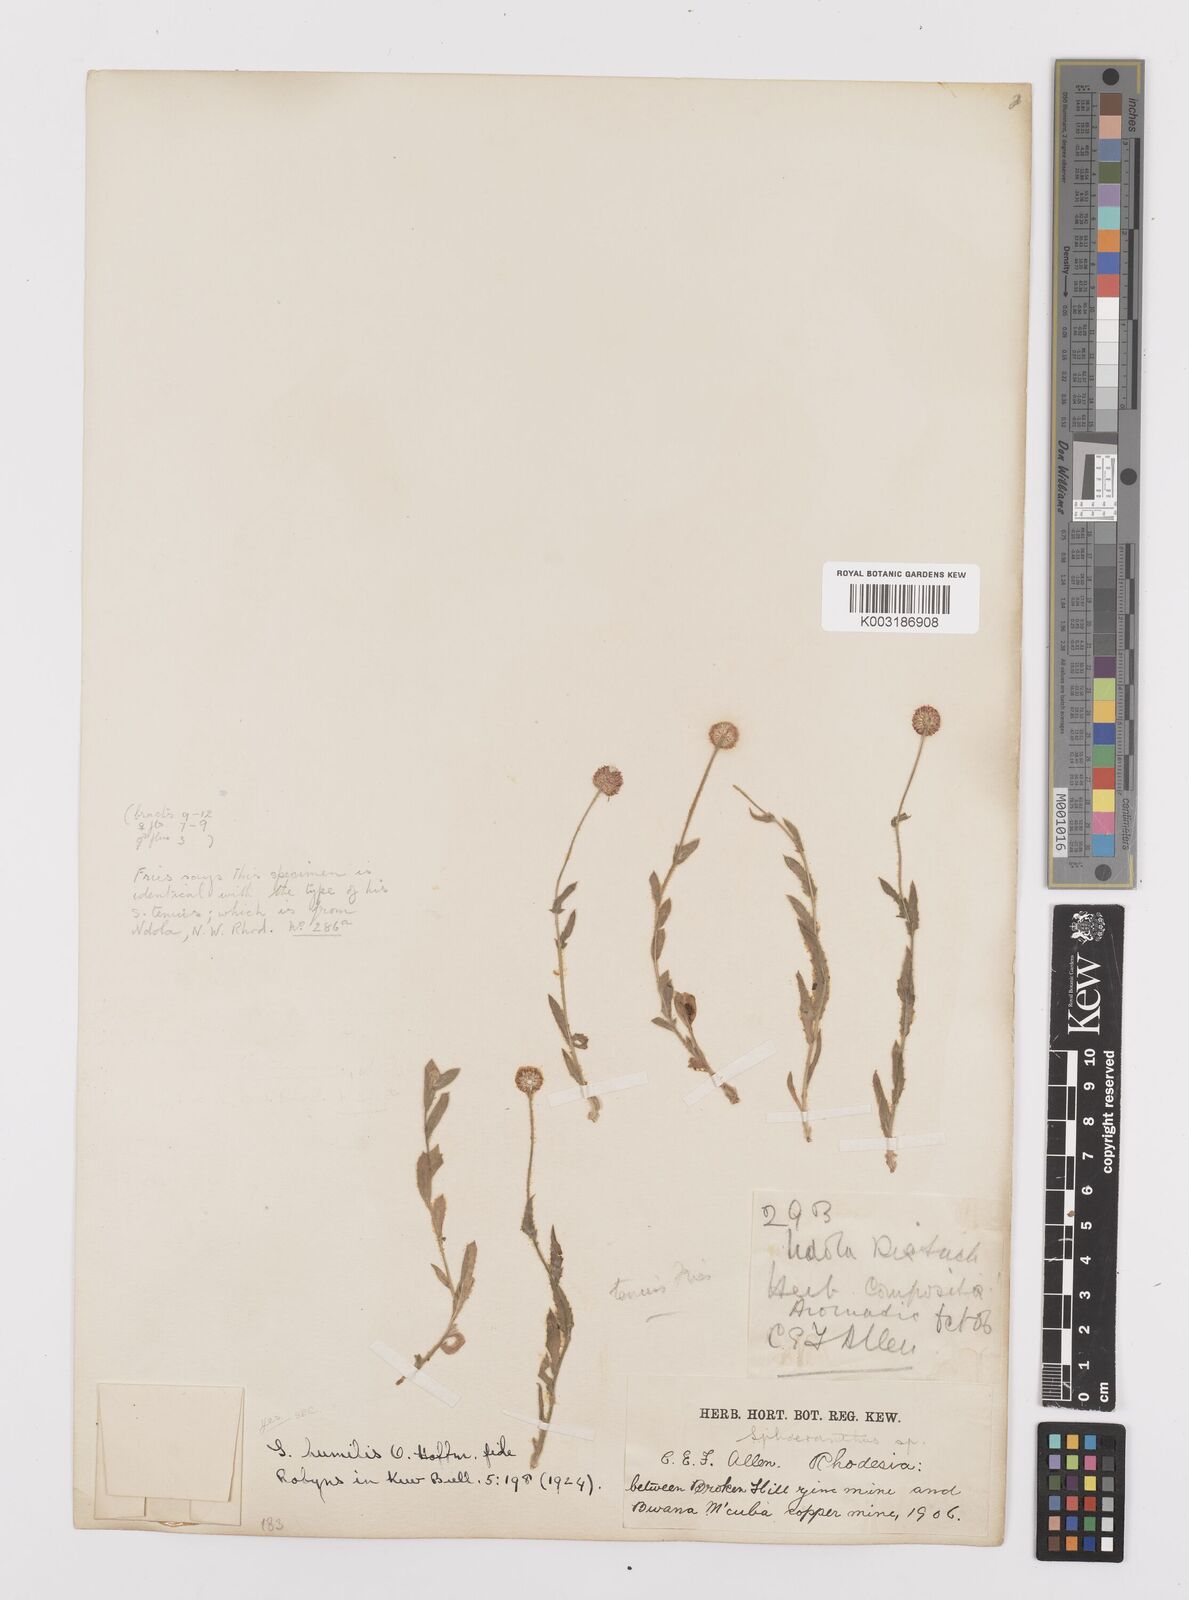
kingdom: Plantae
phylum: Tracheophyta
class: Magnoliopsida
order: Asterales
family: Asteraceae
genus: Sphaeranthus
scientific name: Sphaeranthus flexuosus
